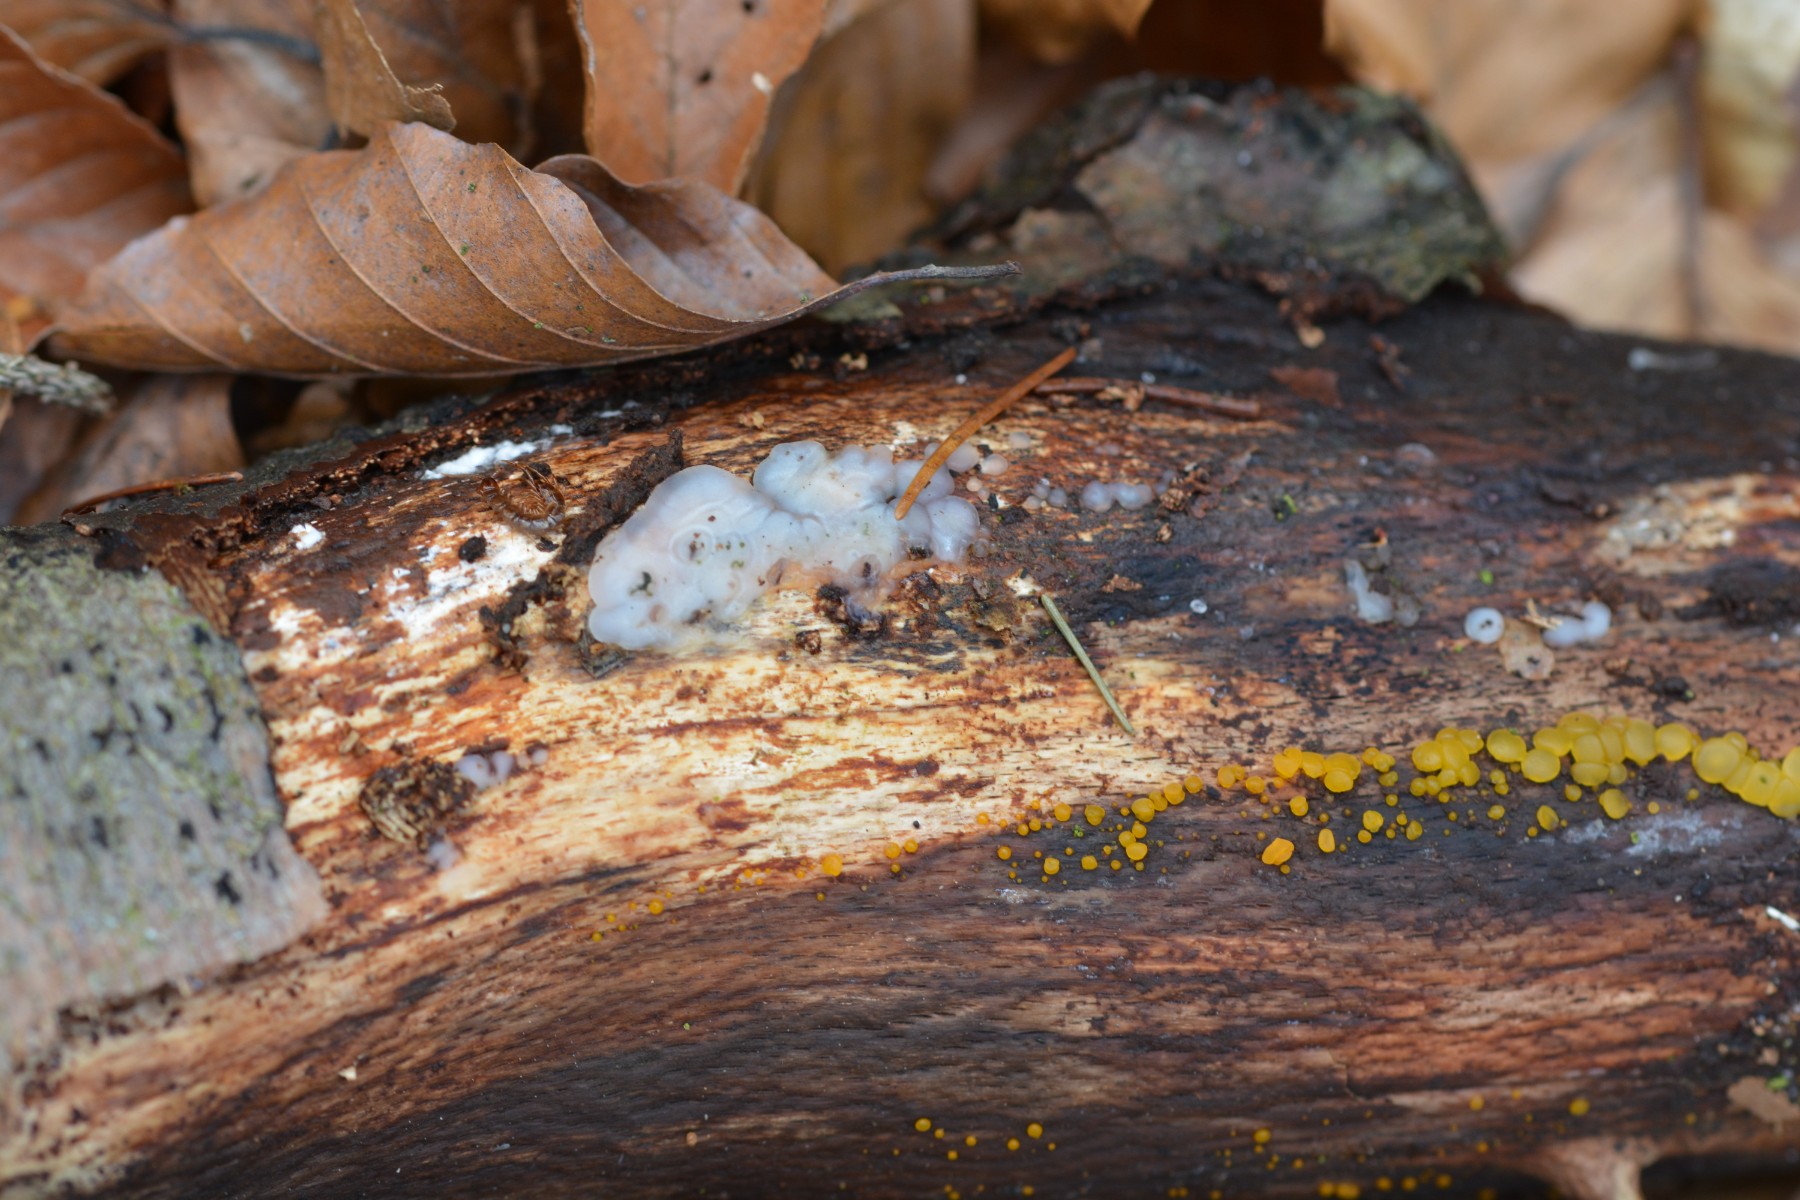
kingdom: Fungi
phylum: Basidiomycota
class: Agaricomycetes
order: Auriculariales
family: Auriculariaceae
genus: Exidia
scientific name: Exidia thuretiana
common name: hvidlig bævretop
